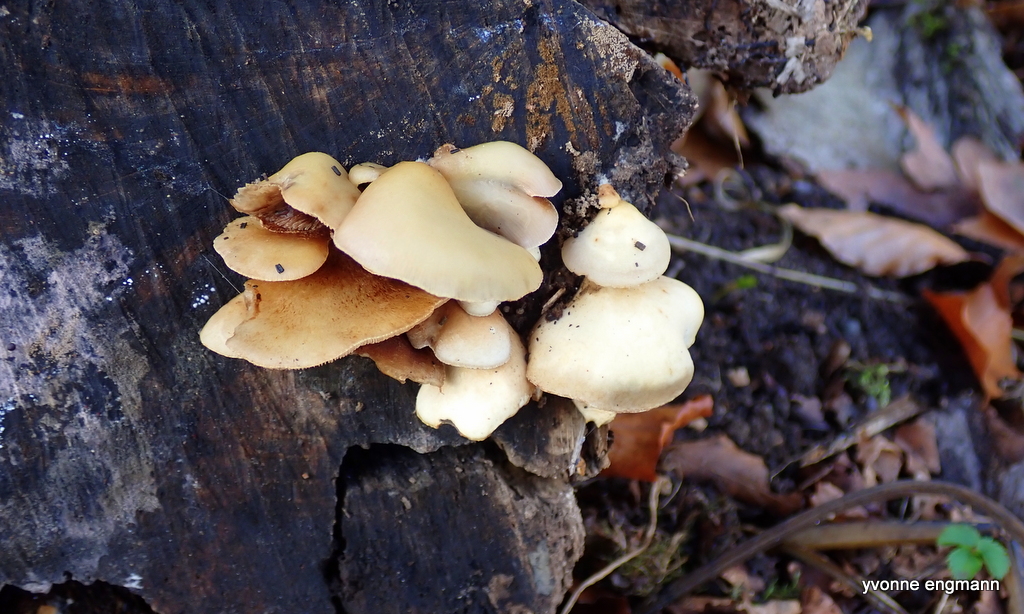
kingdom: Fungi
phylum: Basidiomycota
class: Agaricomycetes
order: Agaricales
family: Crepidotaceae
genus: Crepidotus
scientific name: Crepidotus mollis
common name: blød muslingesvamp
